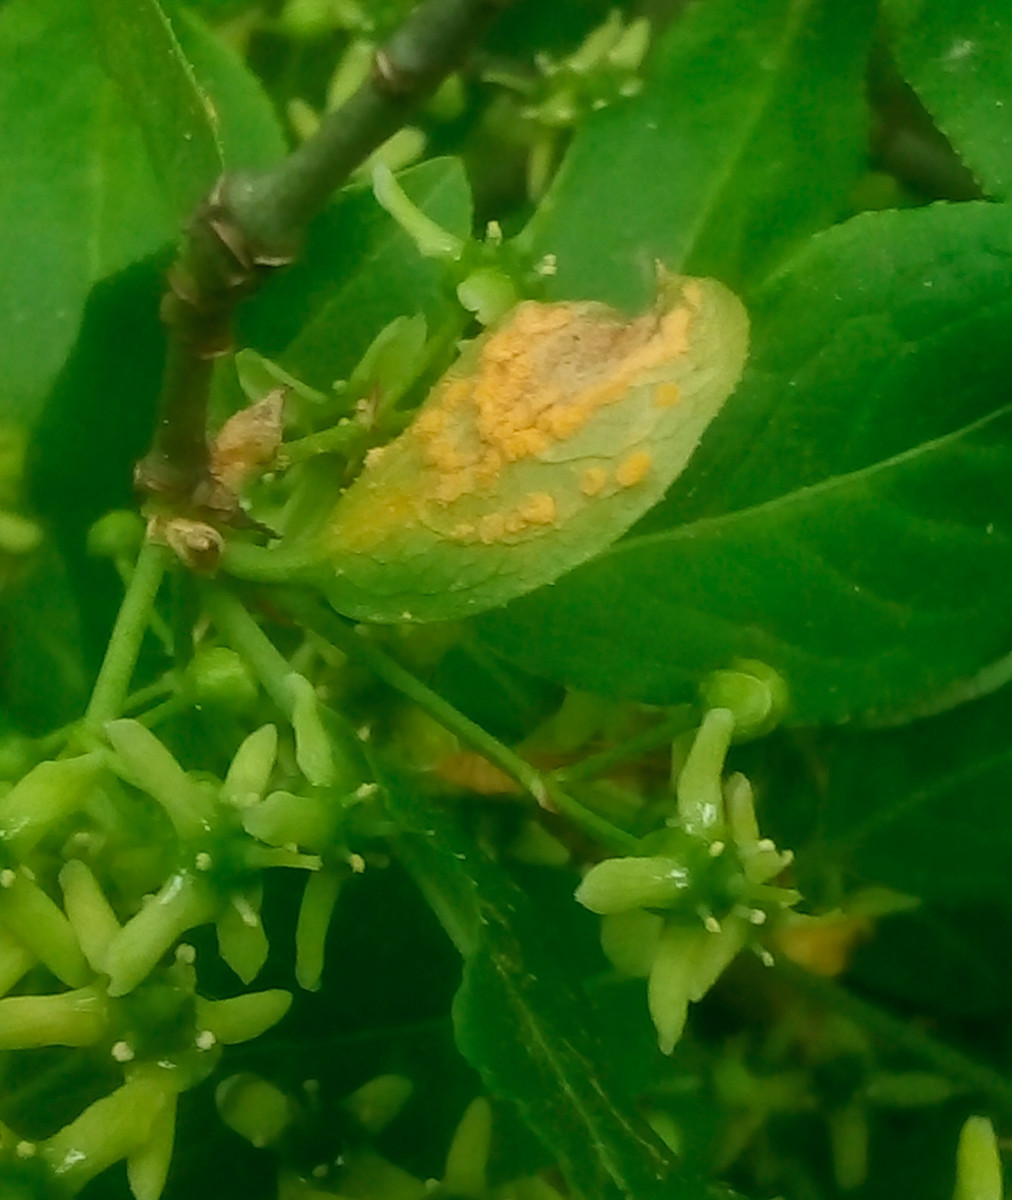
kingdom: Fungi
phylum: Basidiomycota
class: Pucciniomycetes
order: Pucciniales
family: Melampsoraceae
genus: Melampsora
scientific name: Melampsora epitea
